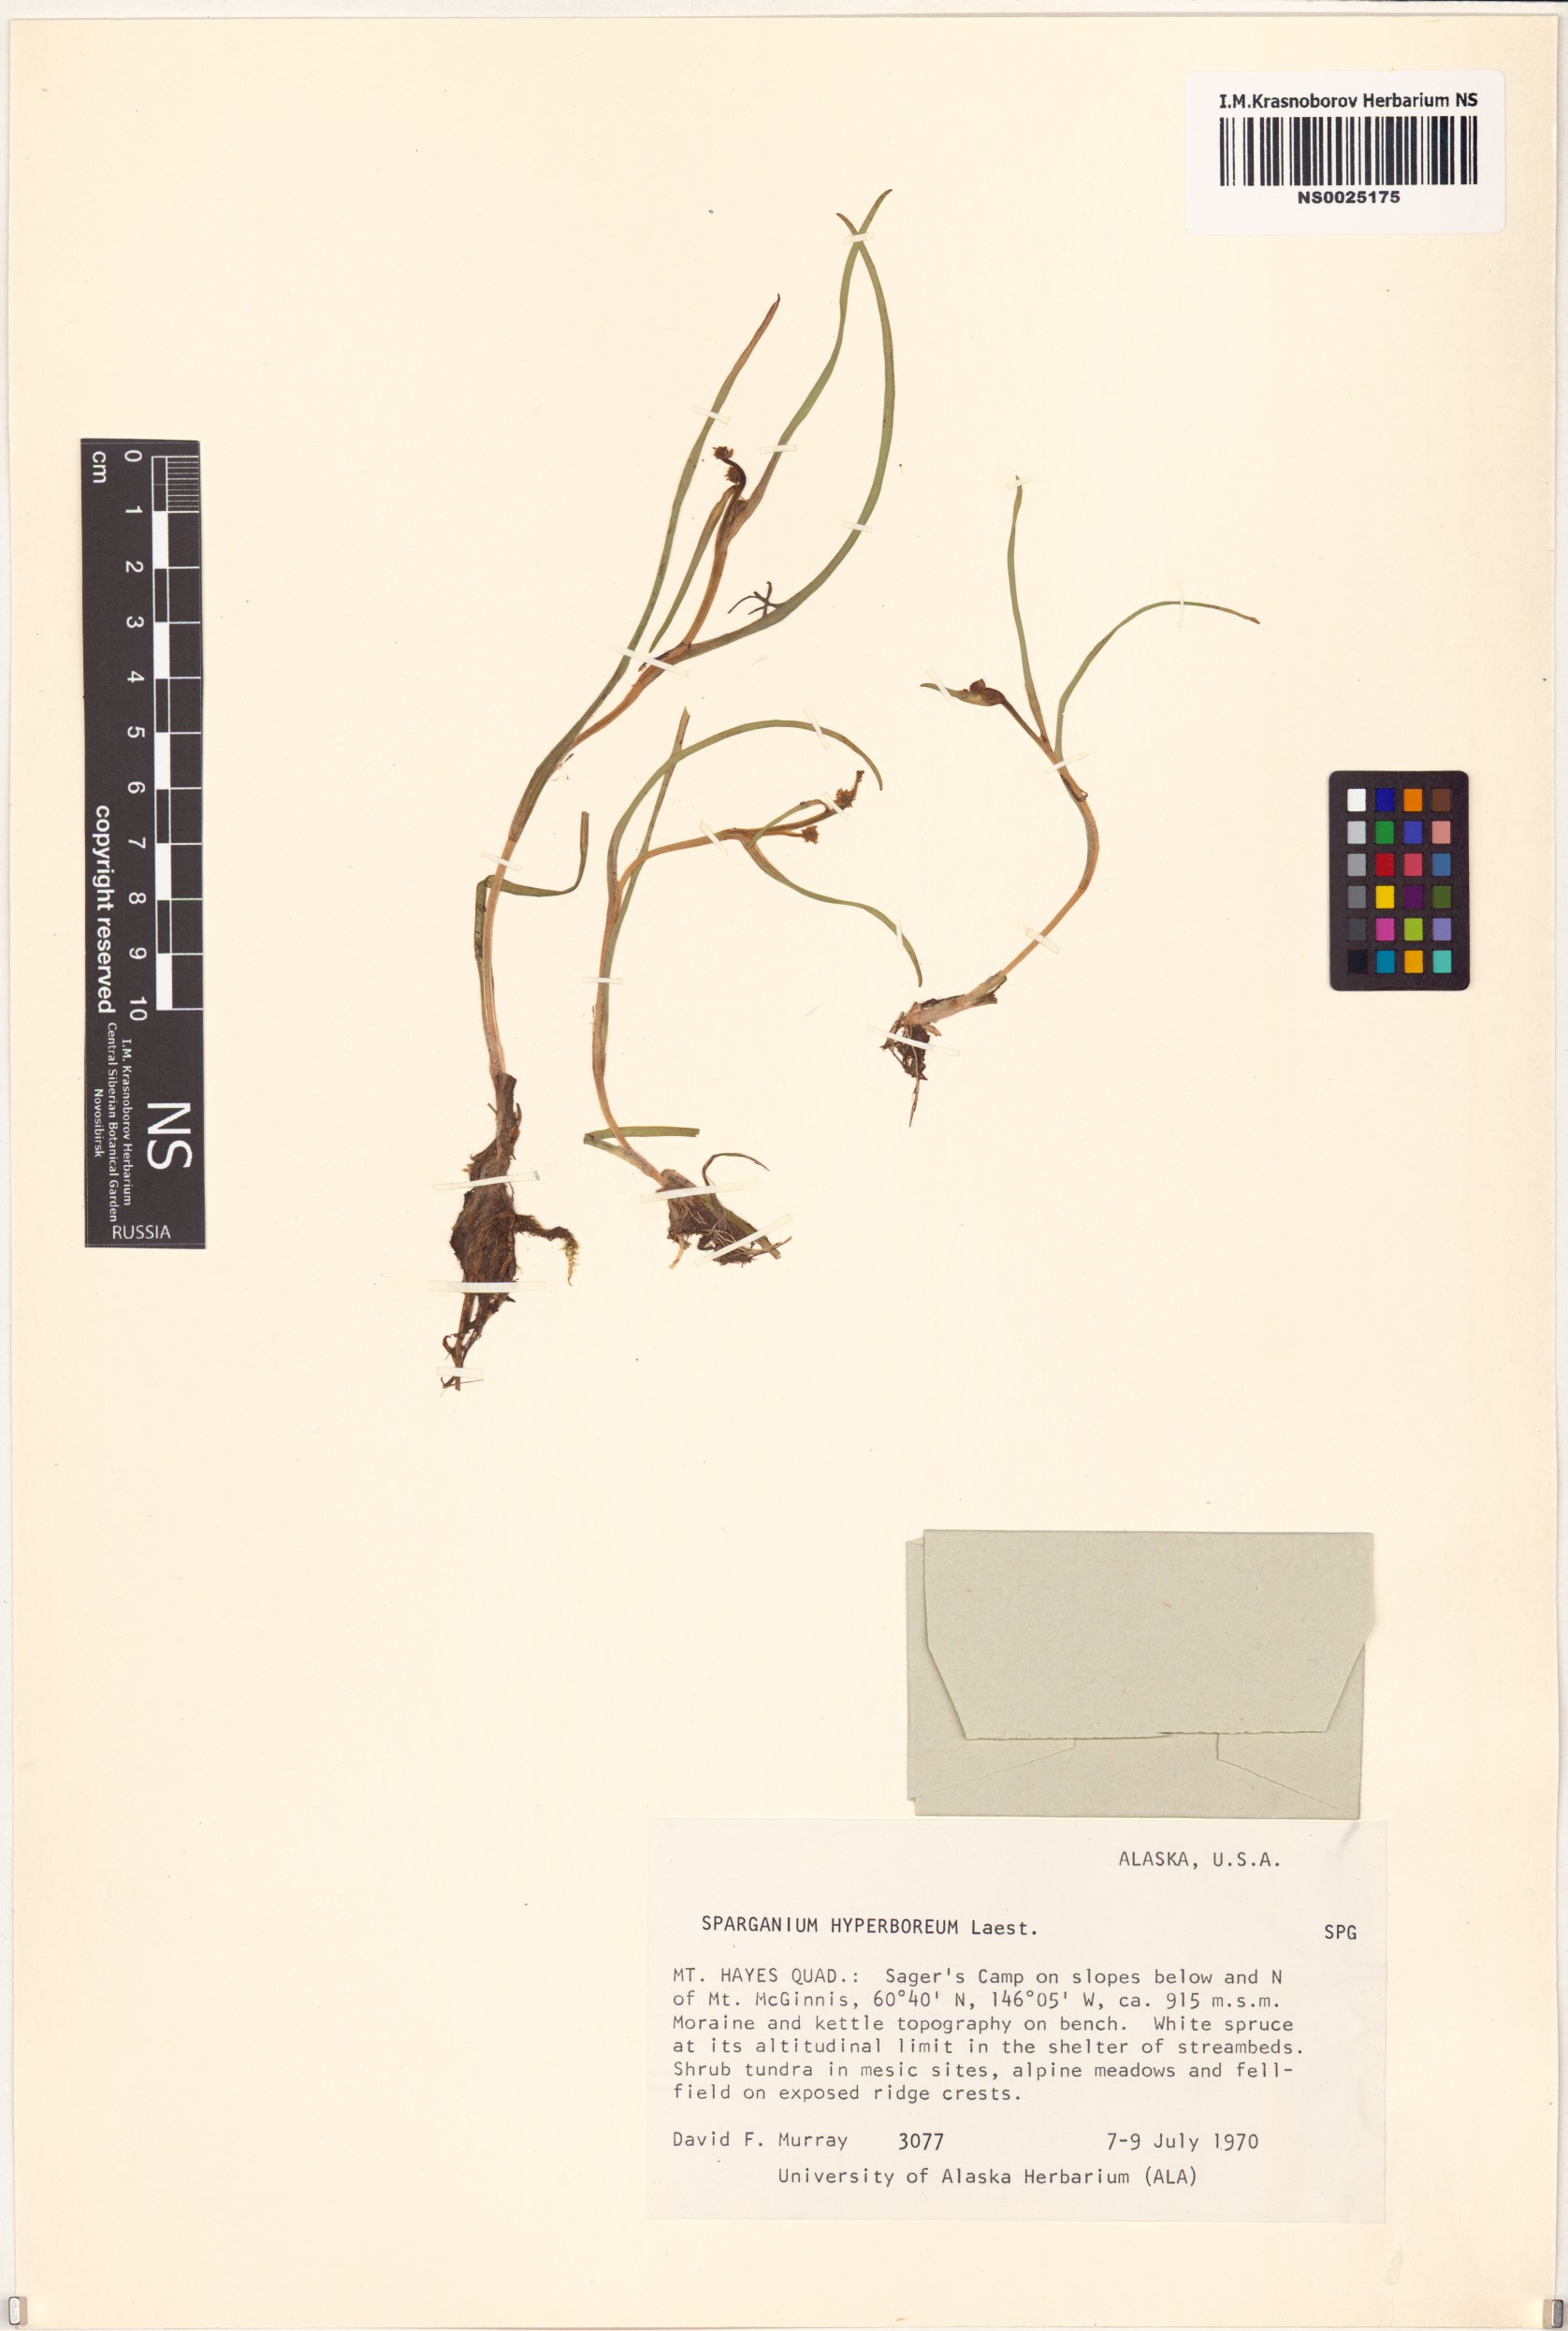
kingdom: Plantae
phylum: Tracheophyta
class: Liliopsida
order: Poales
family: Typhaceae
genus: Sparganium
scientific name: Sparganium hyperboreum
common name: Arctic burreed
